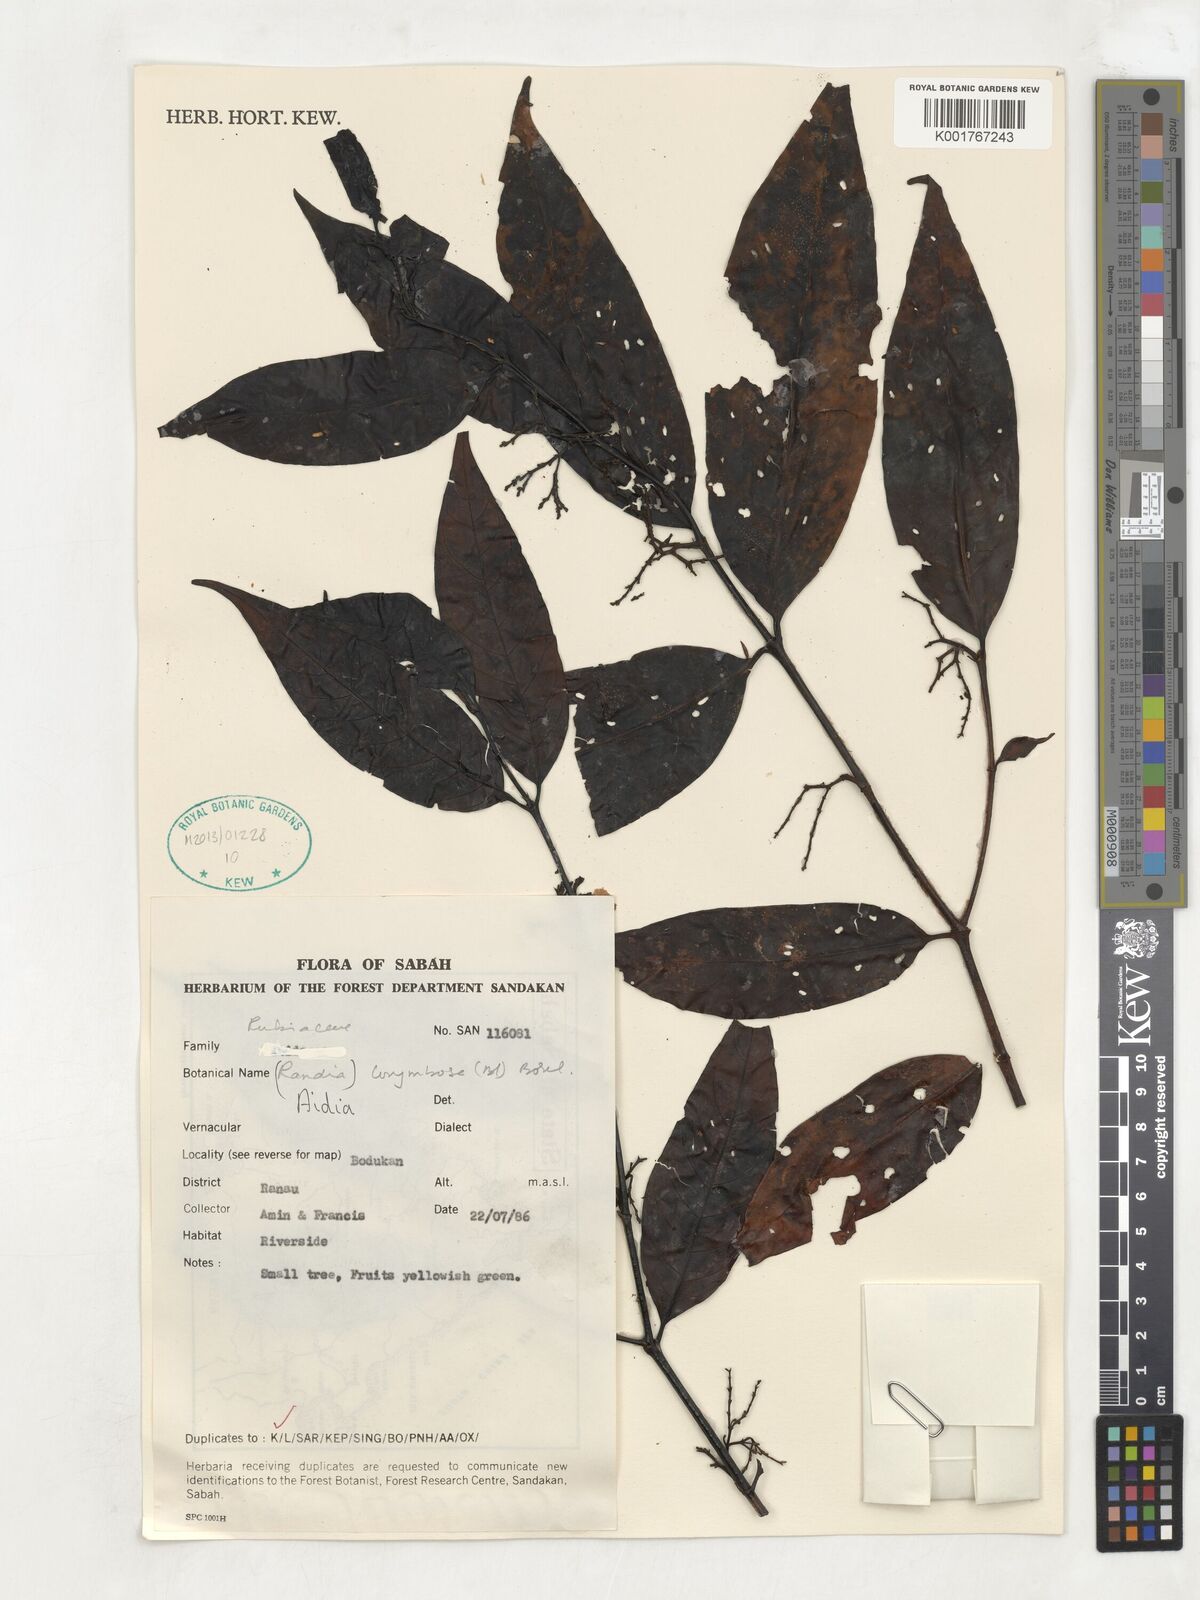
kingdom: Plantae
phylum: Tracheophyta
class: Magnoliopsida
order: Gentianales
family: Rubiaceae
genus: Aidia
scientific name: Aidia corymbosa
